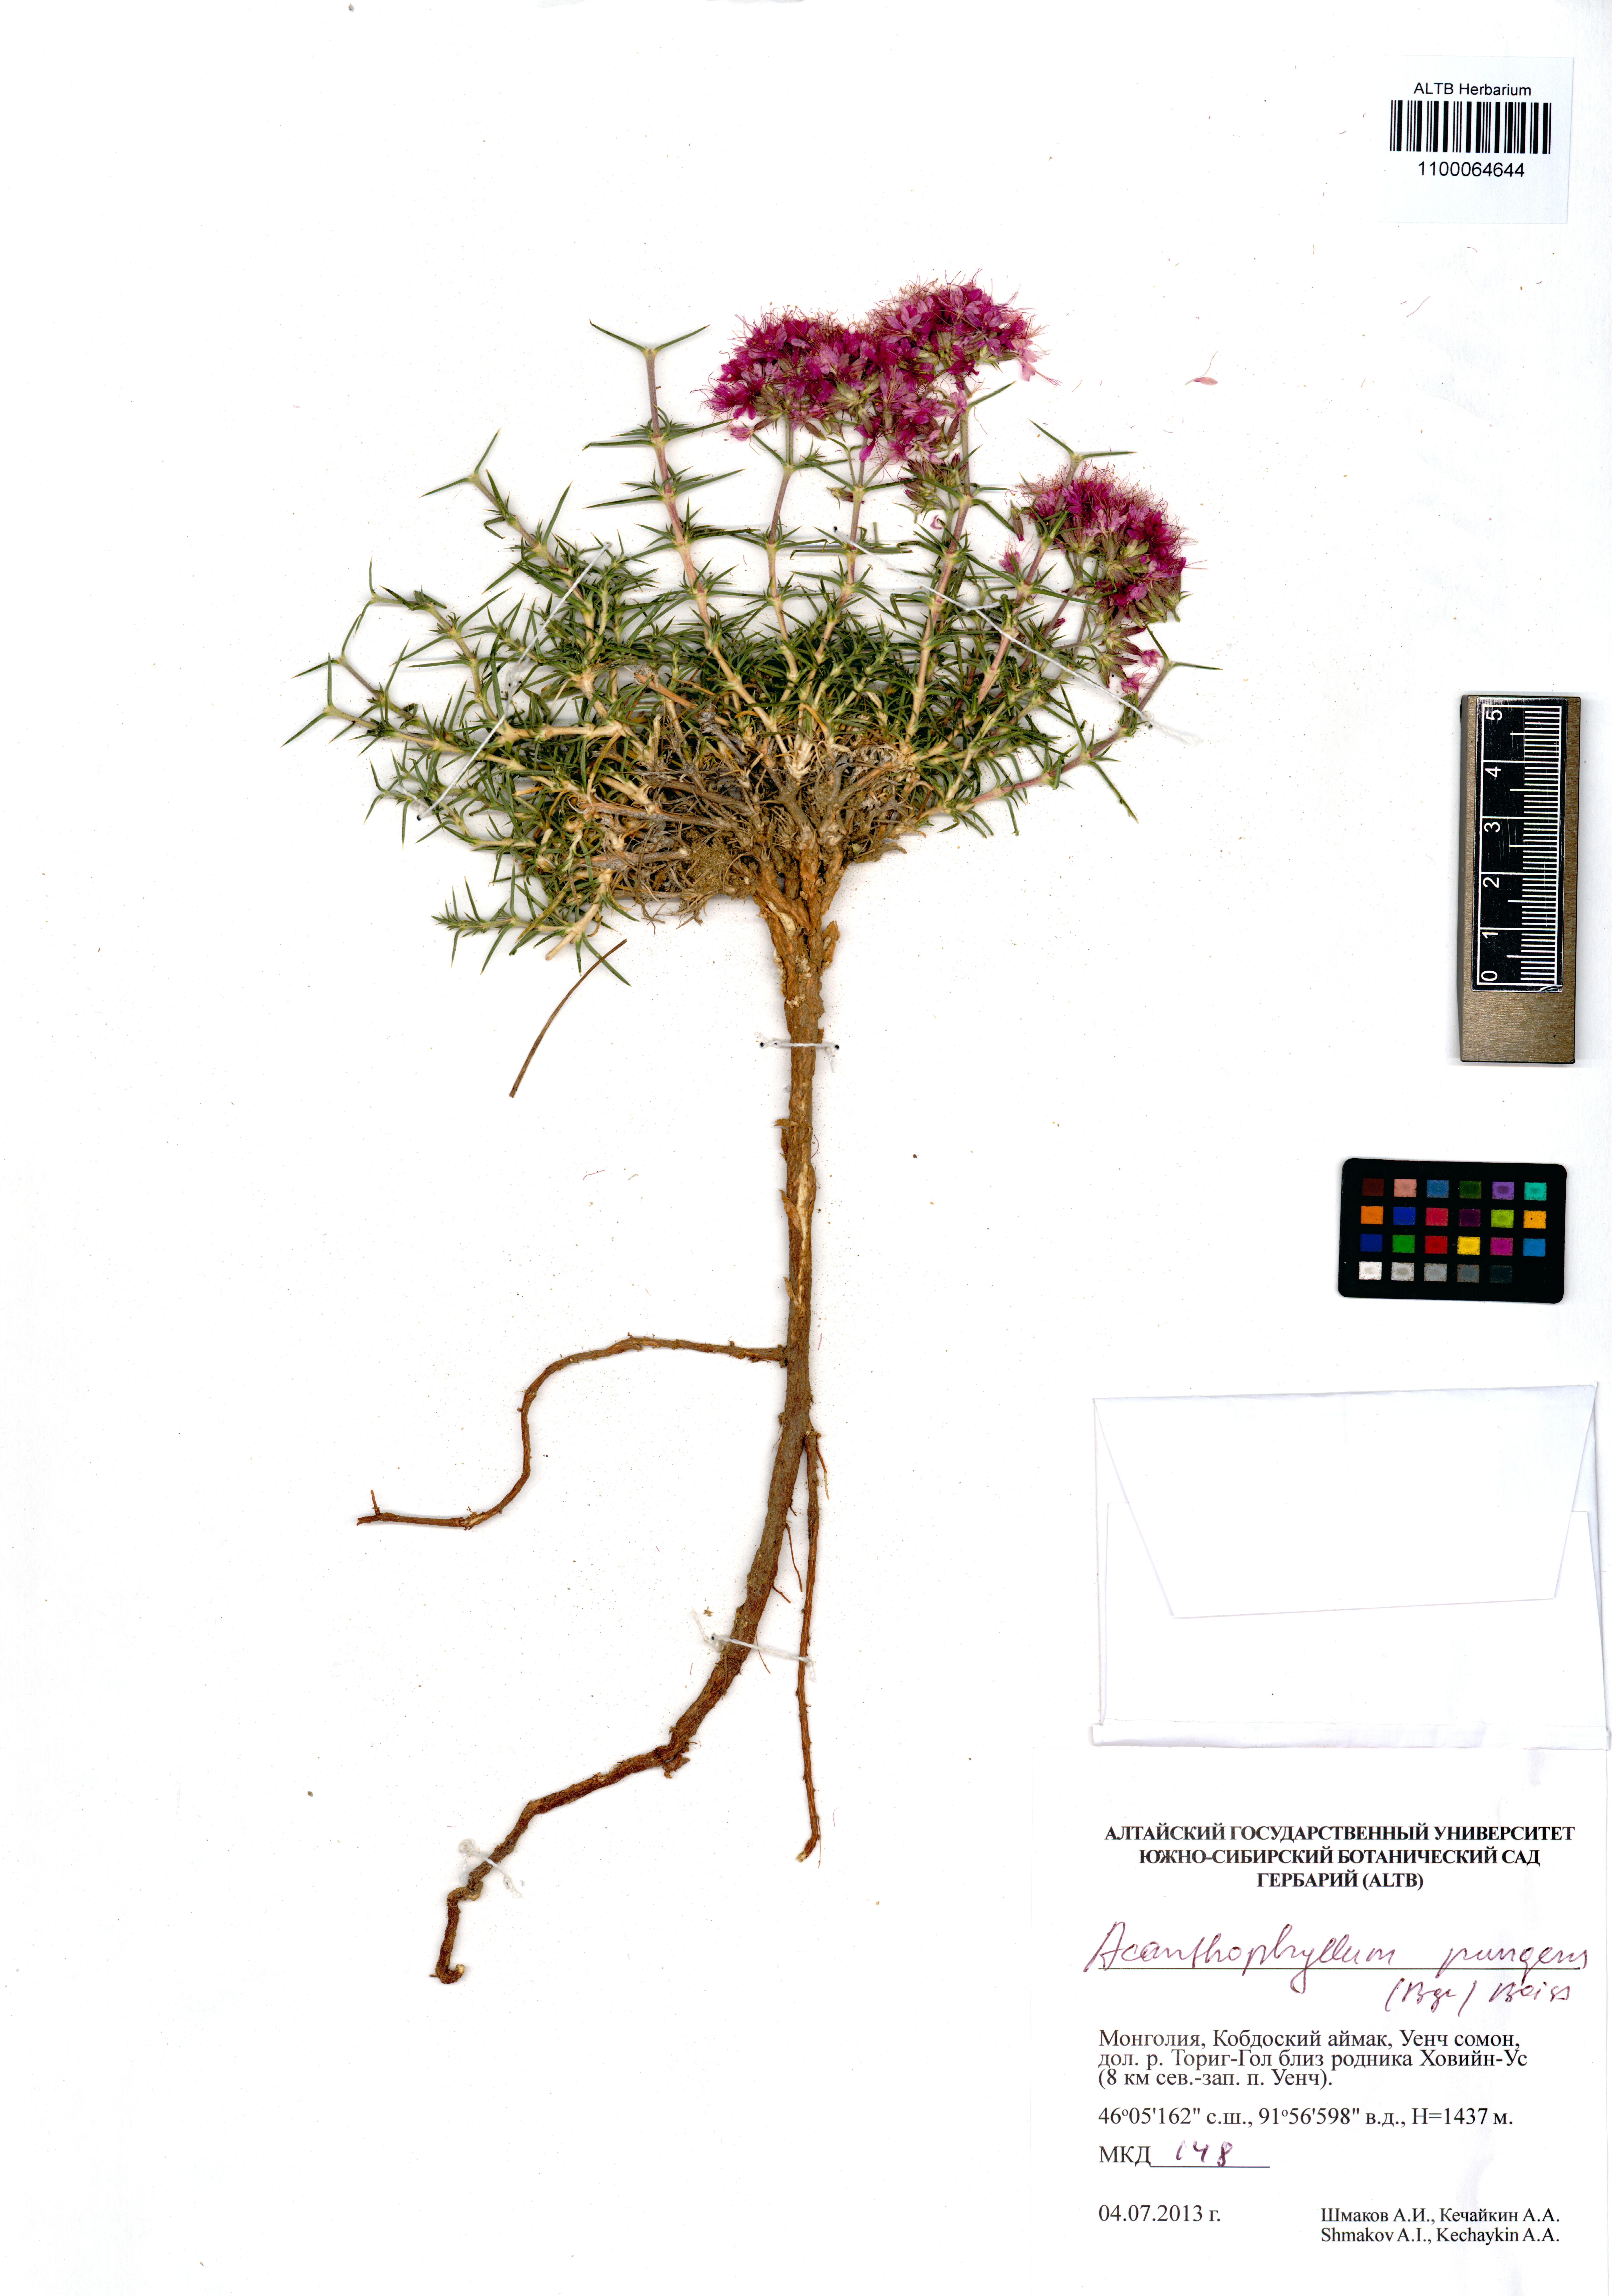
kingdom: Plantae
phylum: Tracheophyta
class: Magnoliopsida
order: Caryophyllales
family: Caryophyllaceae
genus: Acanthophyllum
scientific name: Acanthophyllum pungens
